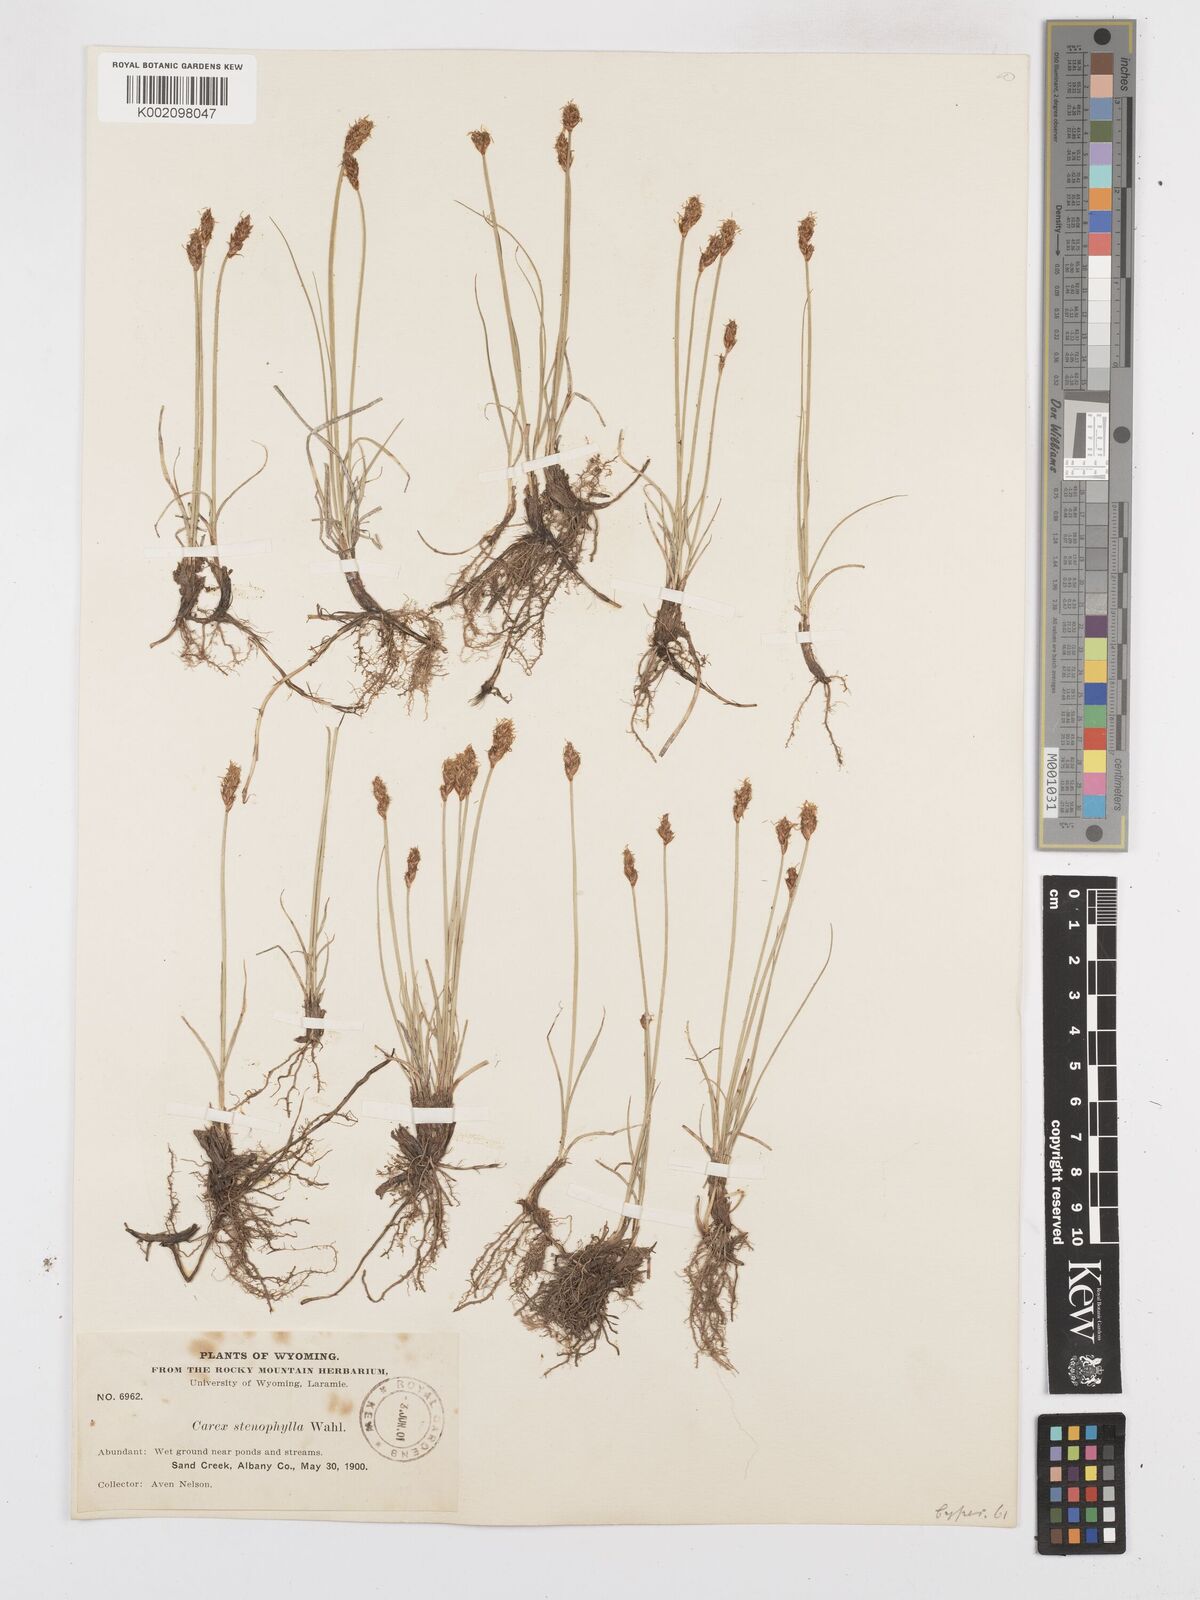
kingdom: Plantae
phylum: Tracheophyta
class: Liliopsida
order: Poales
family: Cyperaceae
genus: Carex
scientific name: Carex duriuscula
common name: Involute-leaved sedge
